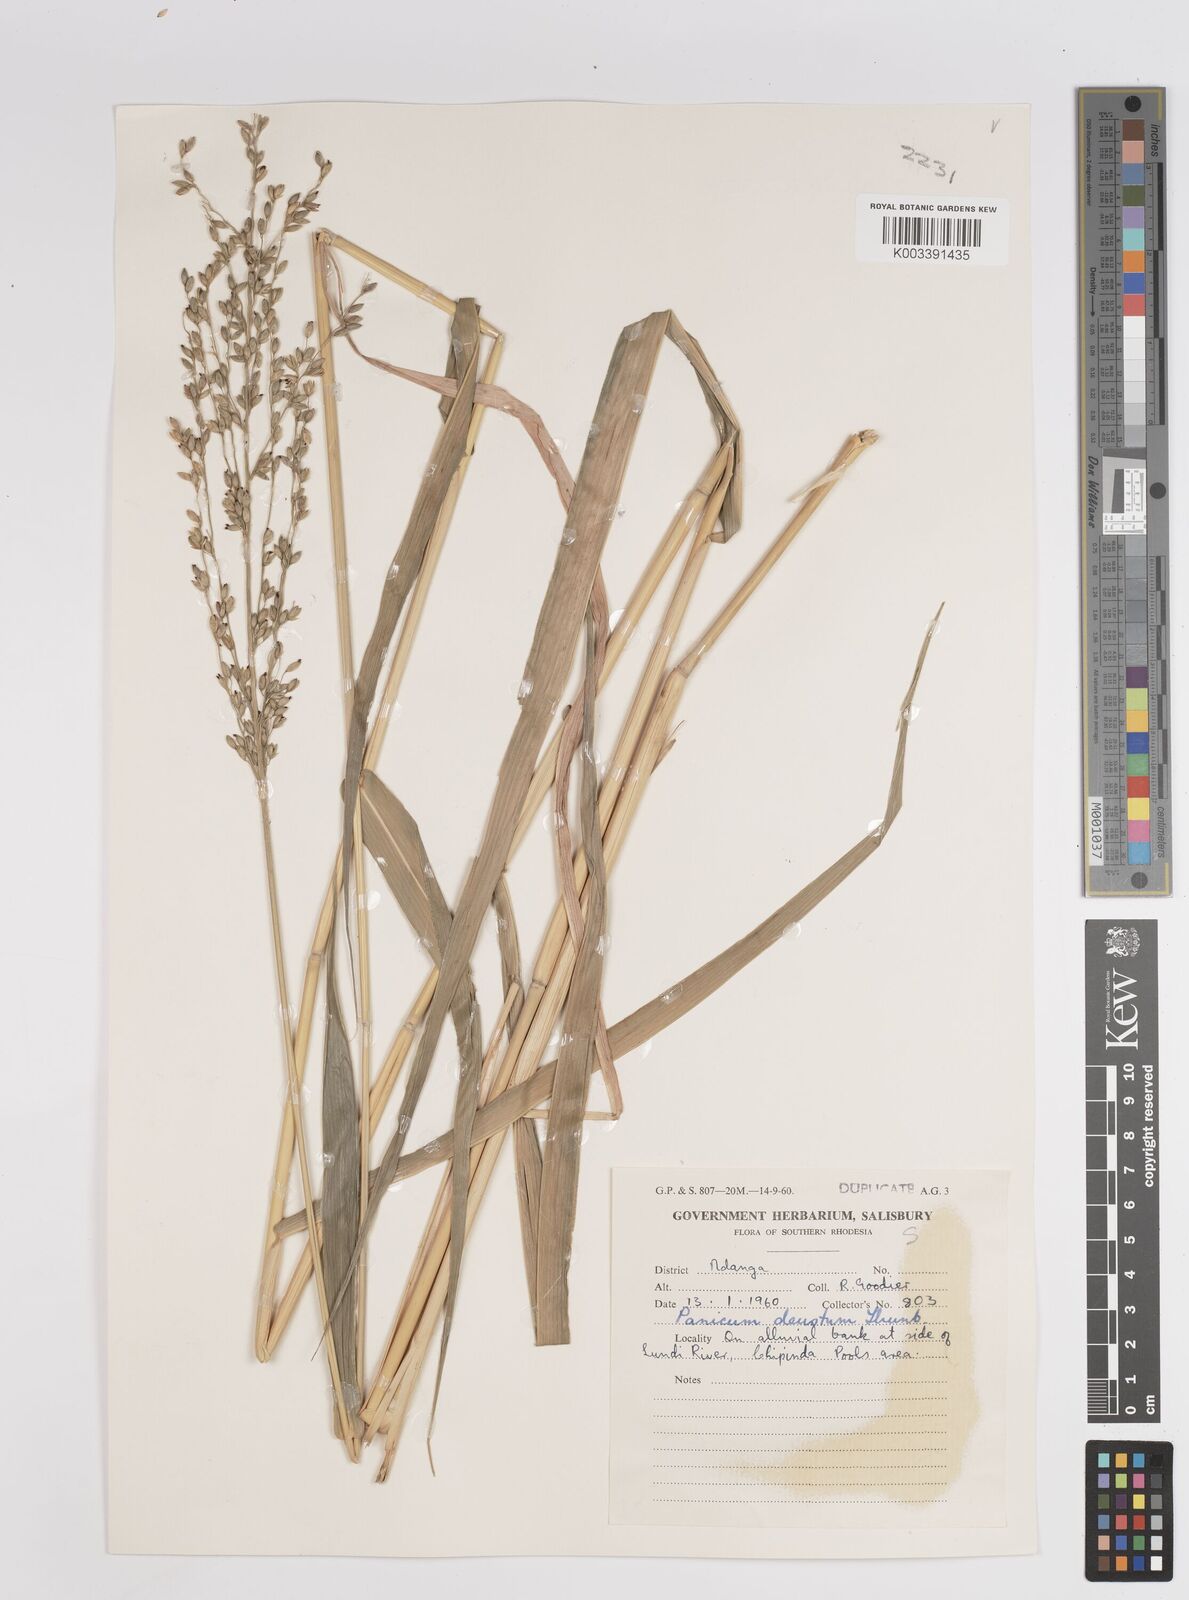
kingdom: Plantae
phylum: Tracheophyta
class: Liliopsida
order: Poales
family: Poaceae
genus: Panicum
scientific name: Panicum deustum
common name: Reed panicum
